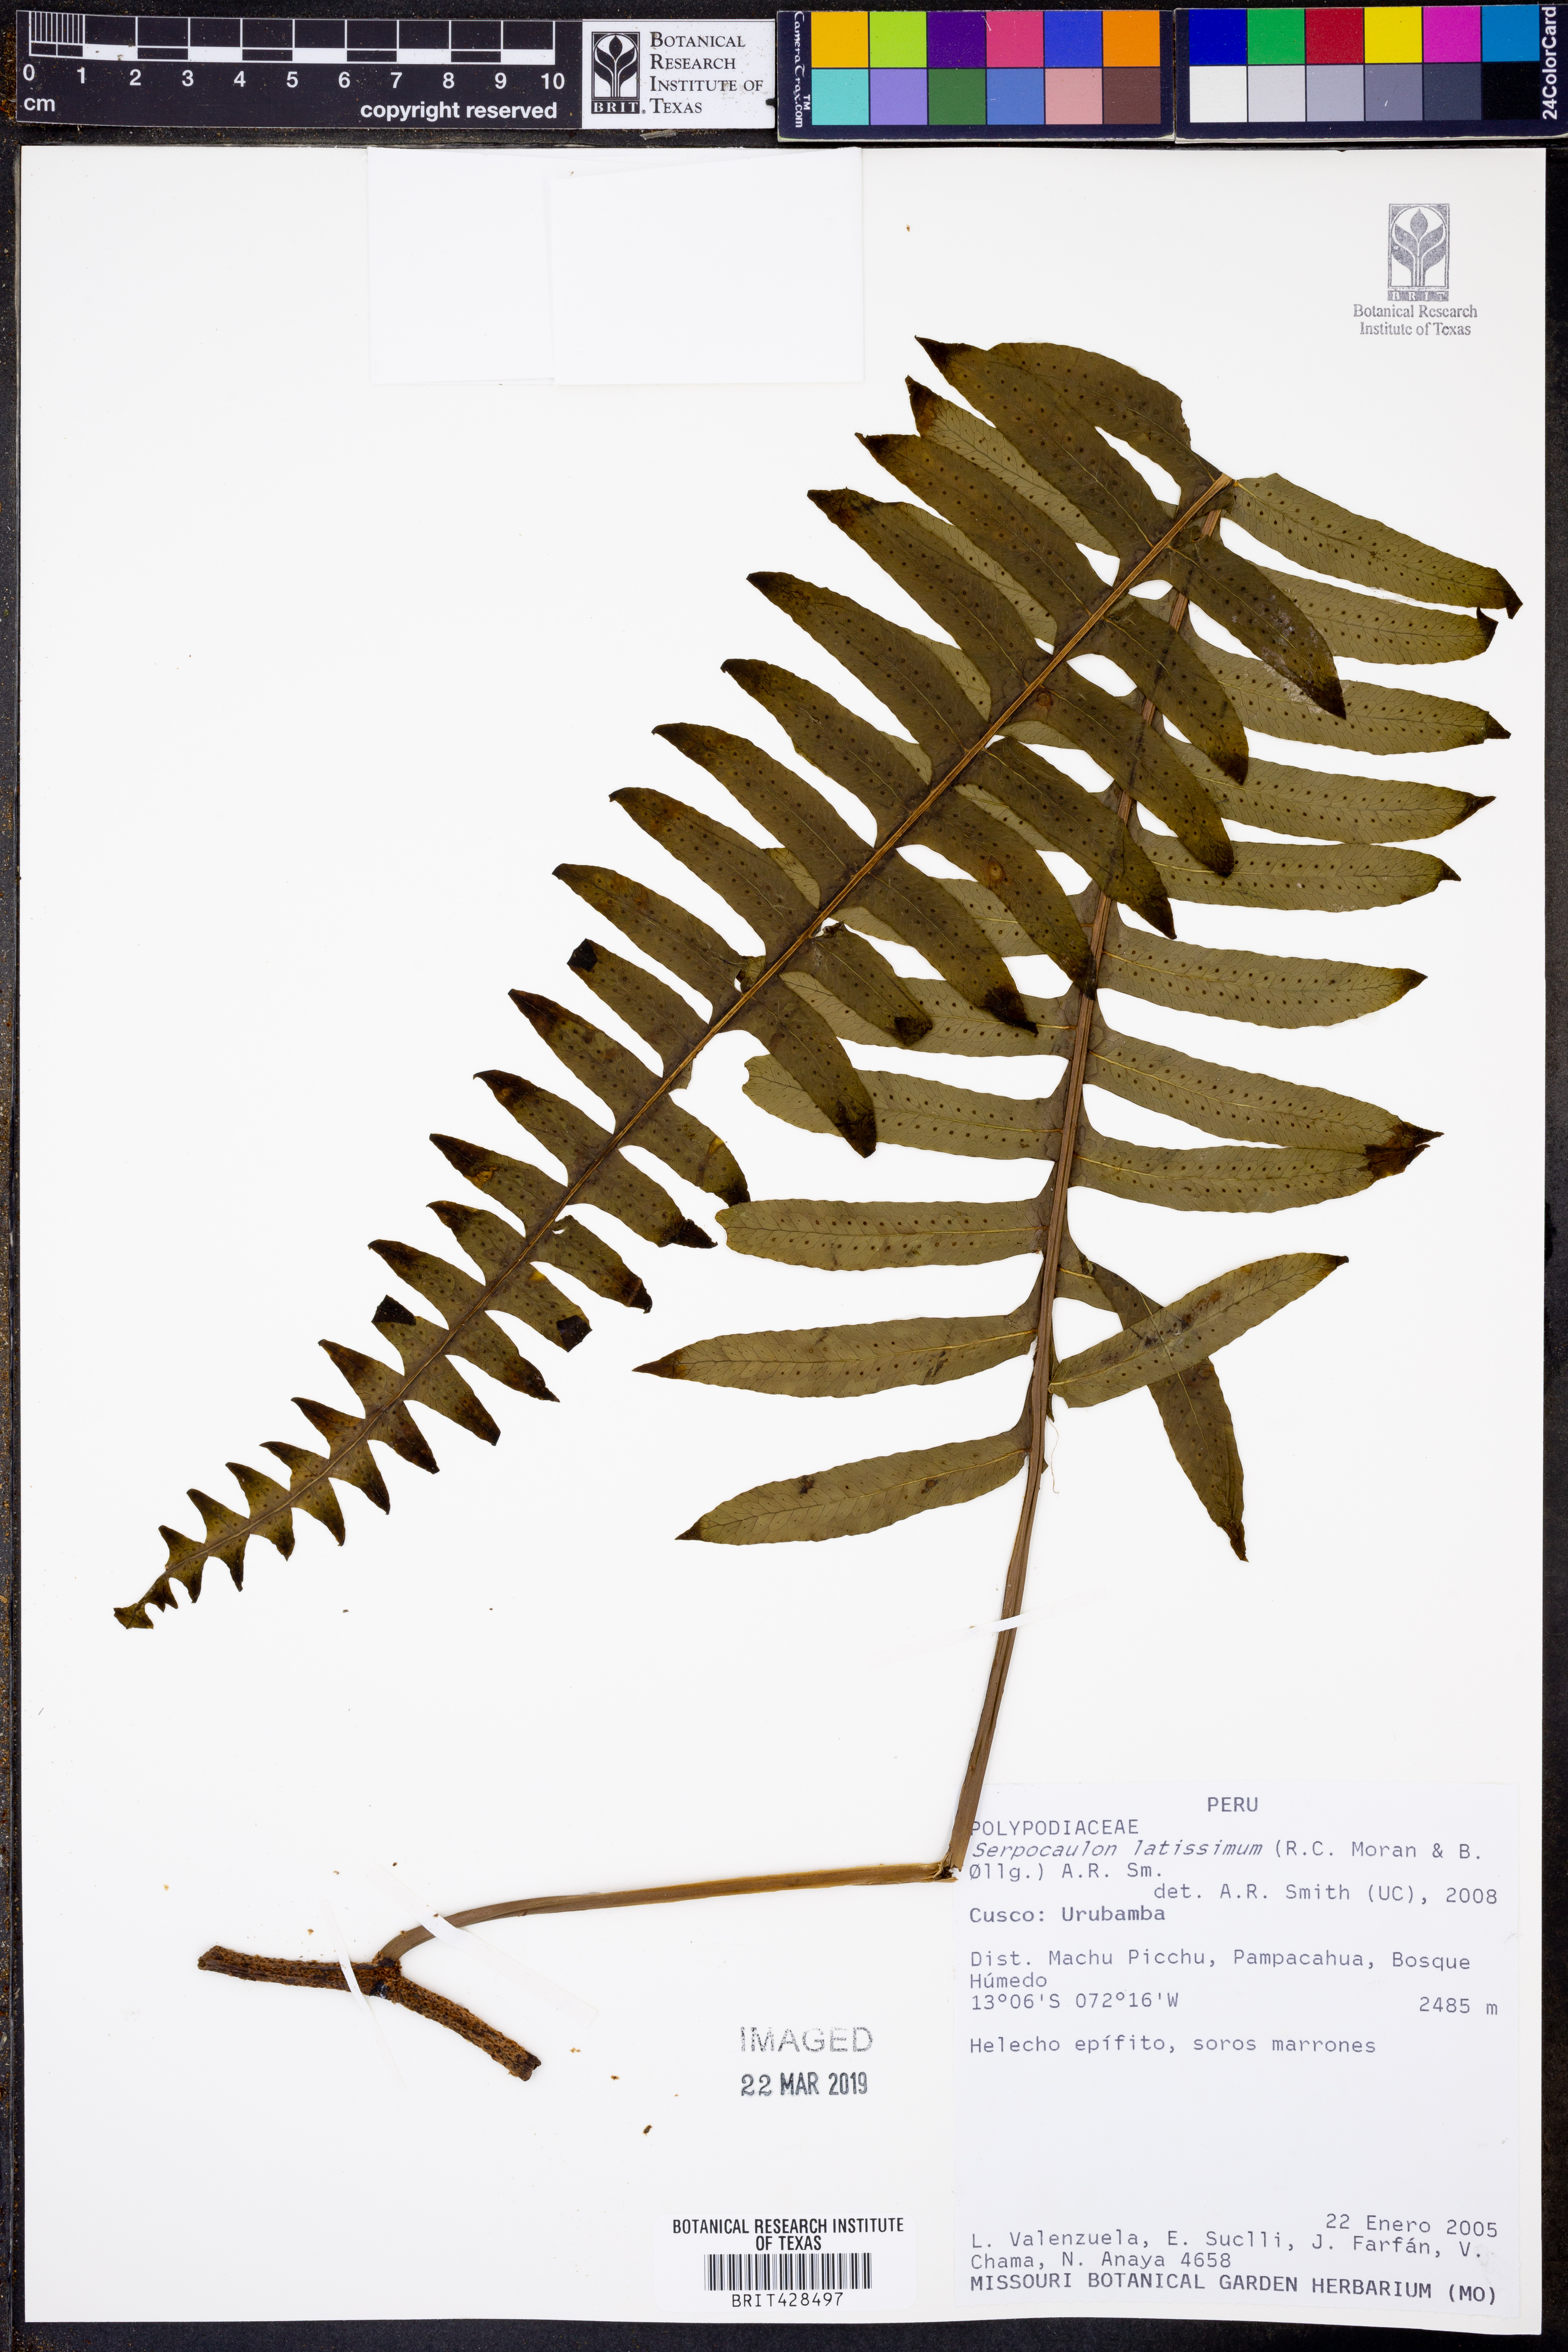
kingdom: Plantae
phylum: Tracheophyta
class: Polypodiopsida
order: Polypodiales
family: Polypodiaceae
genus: Serpocaulon
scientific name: Serpocaulon latissimum
